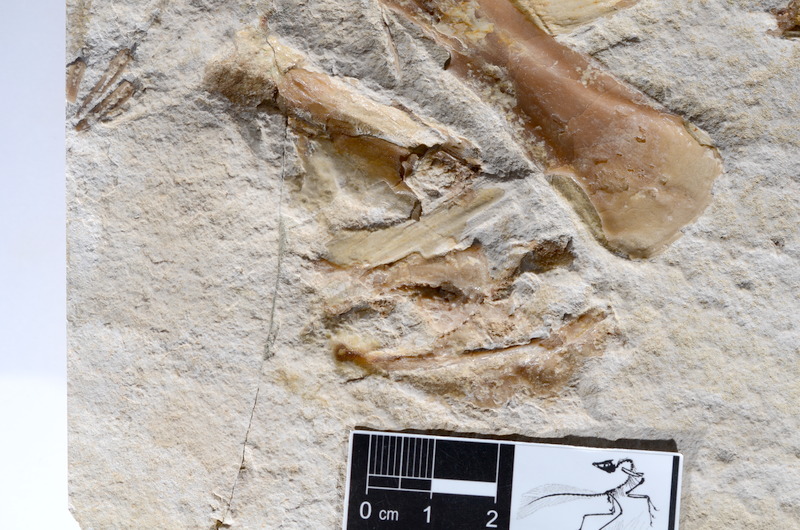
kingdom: Animalia
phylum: Chordata
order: Amiiformes
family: Caturidae
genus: Caturus
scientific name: Caturus
